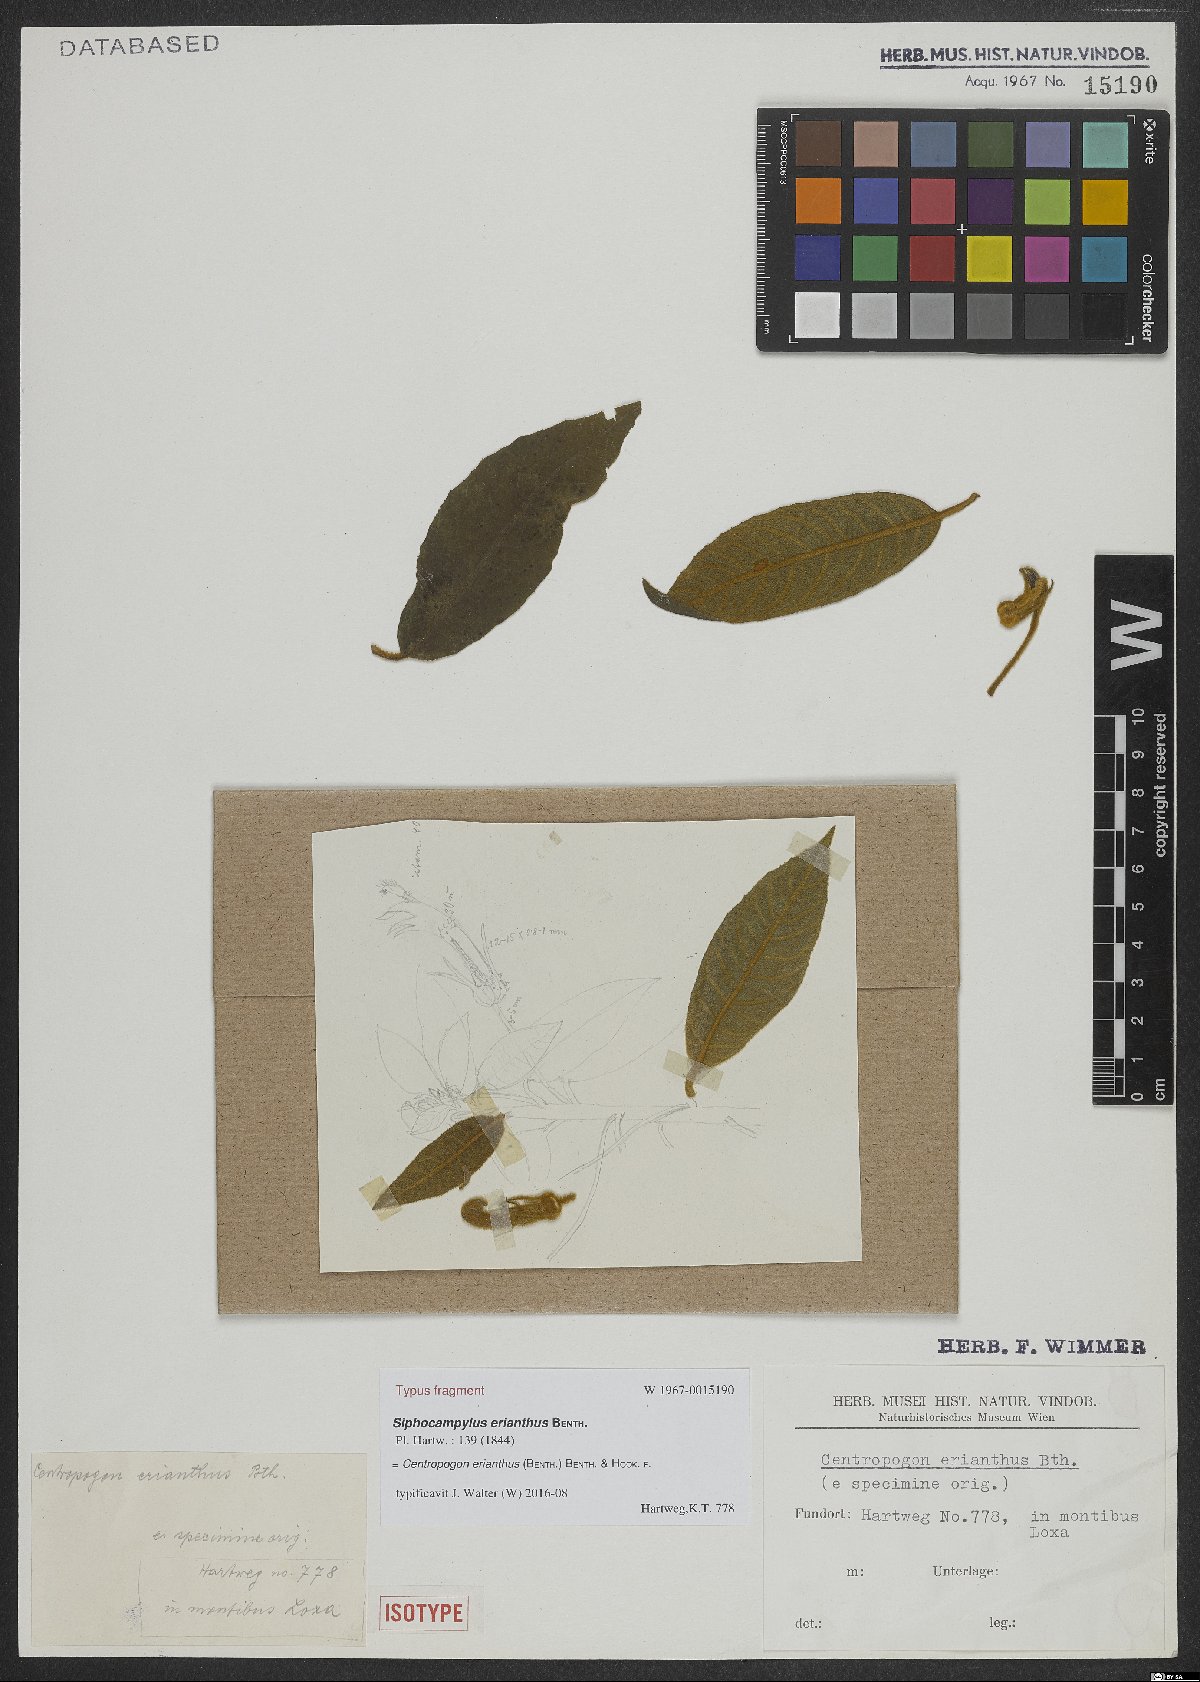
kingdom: Plantae
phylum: Tracheophyta
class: Magnoliopsida
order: Asterales
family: Campanulaceae
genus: Centropogon
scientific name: Centropogon erianthus
